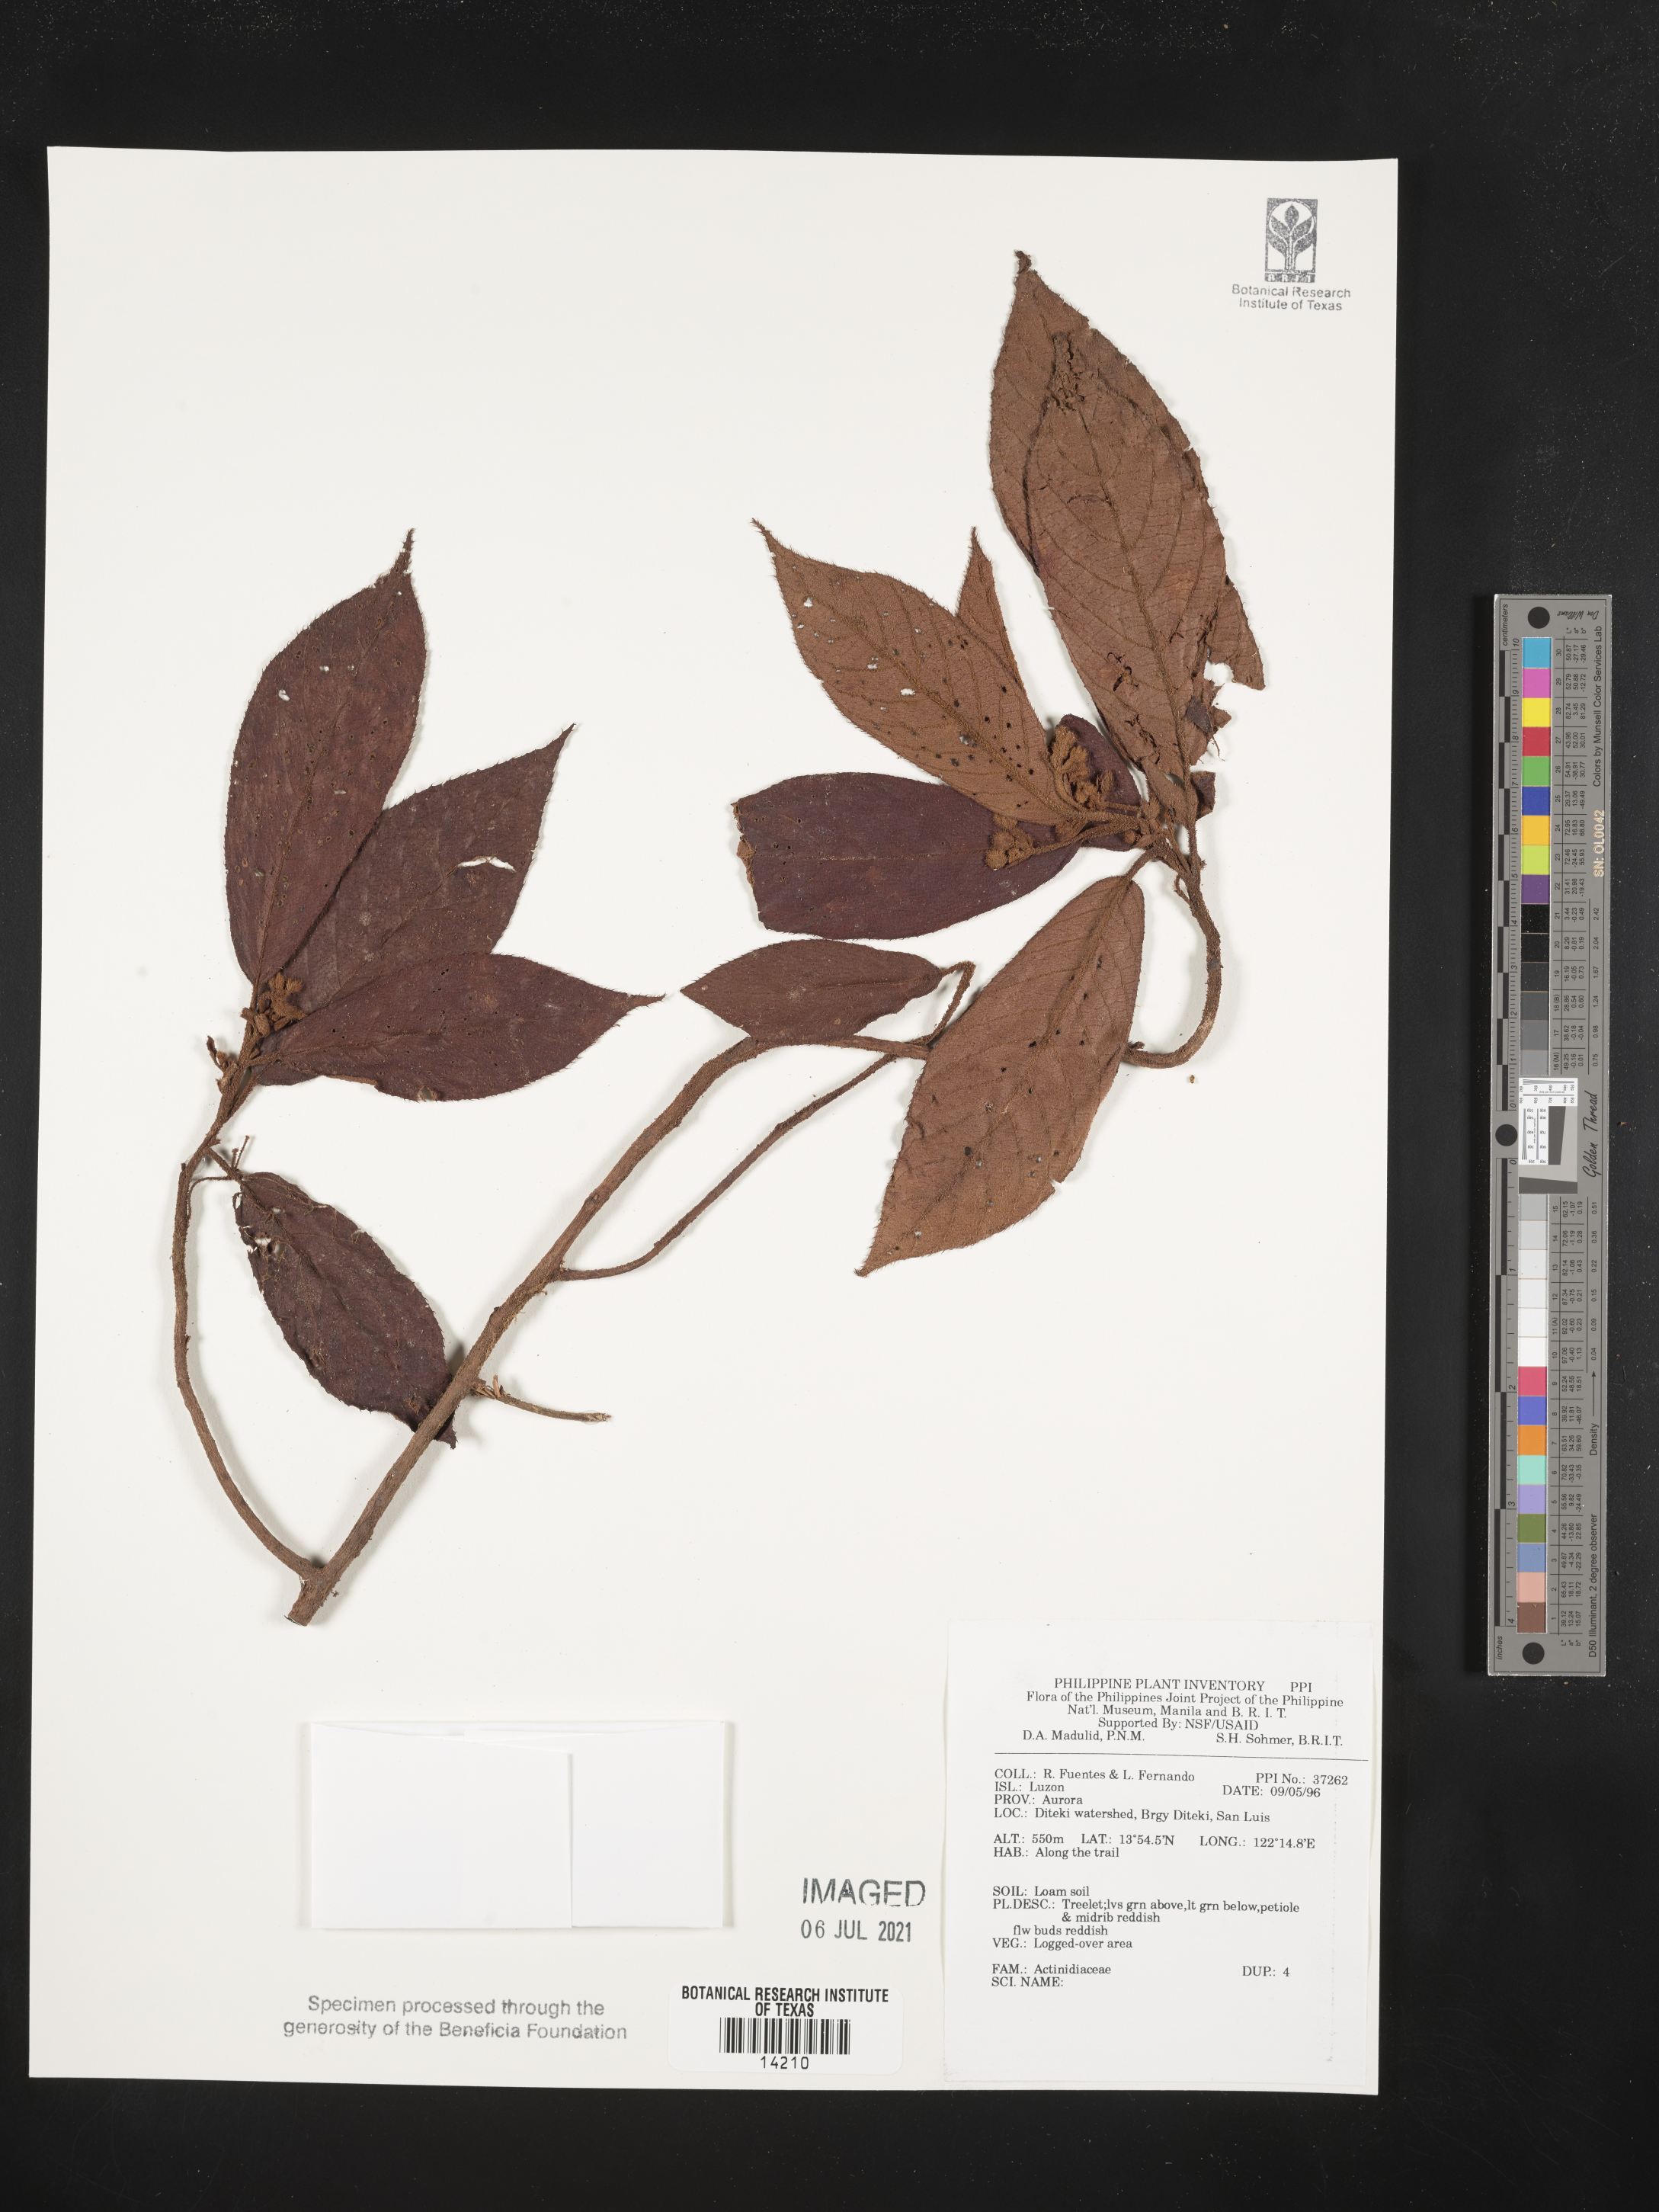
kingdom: Plantae
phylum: Tracheophyta
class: Magnoliopsida
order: Ericales
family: Actinidiaceae
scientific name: Actinidiaceae
